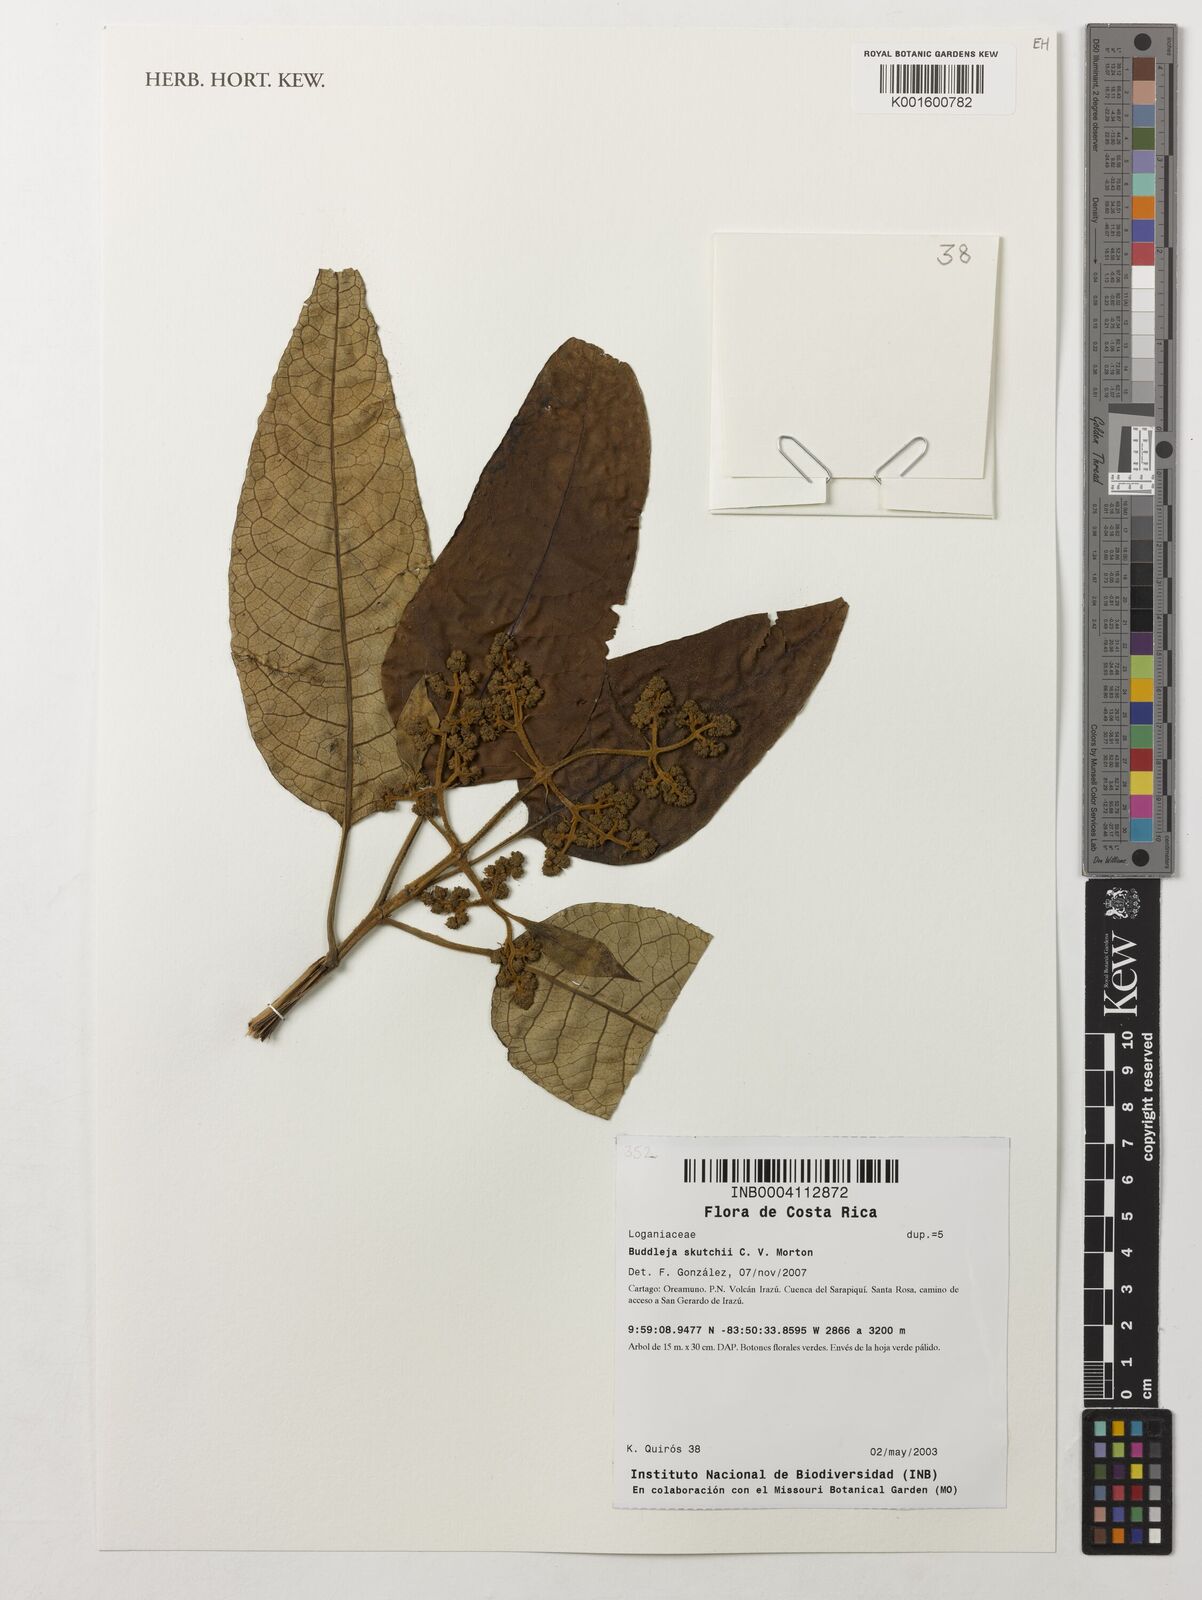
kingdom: Plantae
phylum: Tracheophyta
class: Magnoliopsida
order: Lamiales
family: Scrophulariaceae
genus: Buddleja
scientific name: Buddleja skutchii
